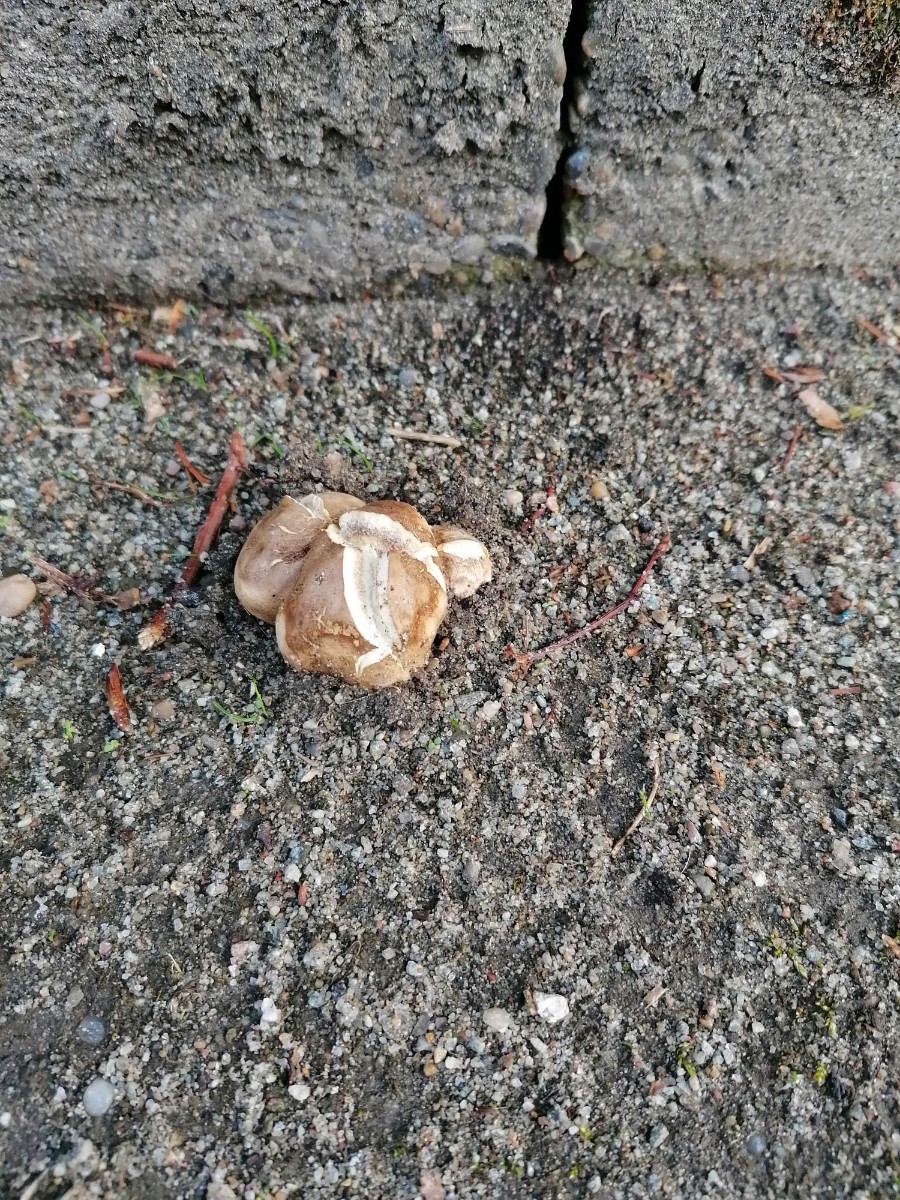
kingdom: Fungi
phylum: Basidiomycota
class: Agaricomycetes
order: Boletales
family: Sclerodermataceae
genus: Scleroderma
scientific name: Scleroderma citrinum
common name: almindelig bruskbold
